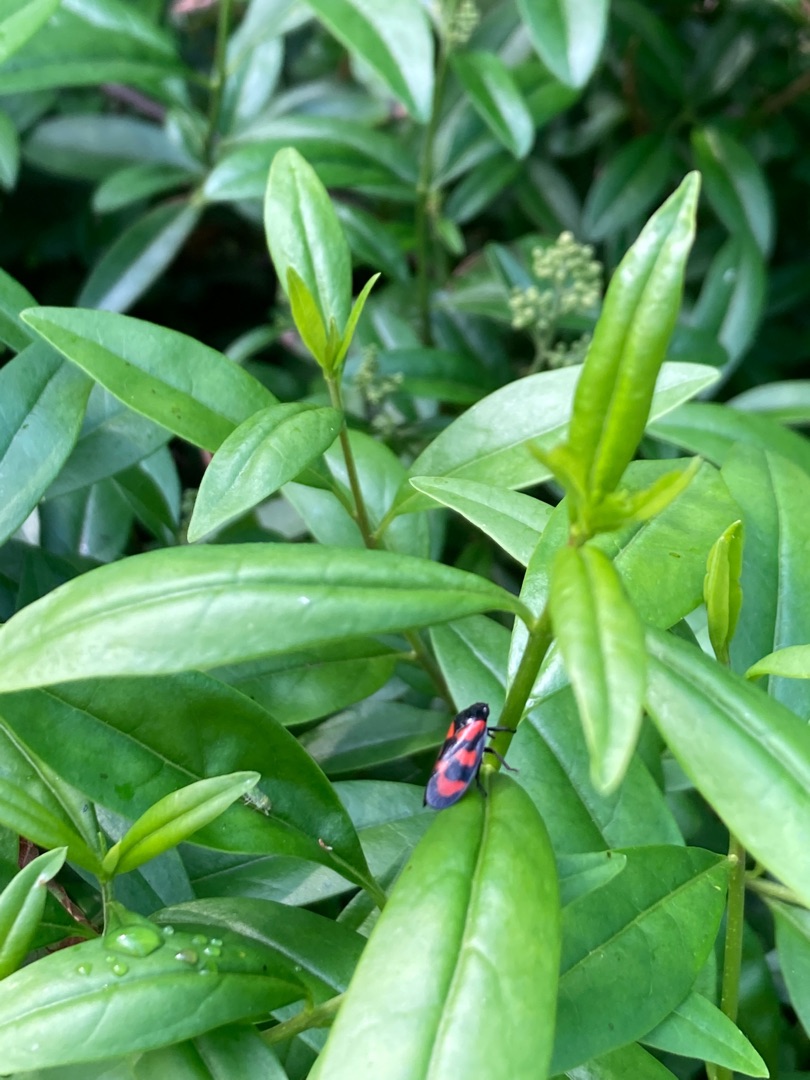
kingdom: Animalia
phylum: Arthropoda
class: Insecta
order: Hemiptera
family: Cercopidae
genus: Cercopis
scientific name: Cercopis vulnerata
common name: Blodcikade
